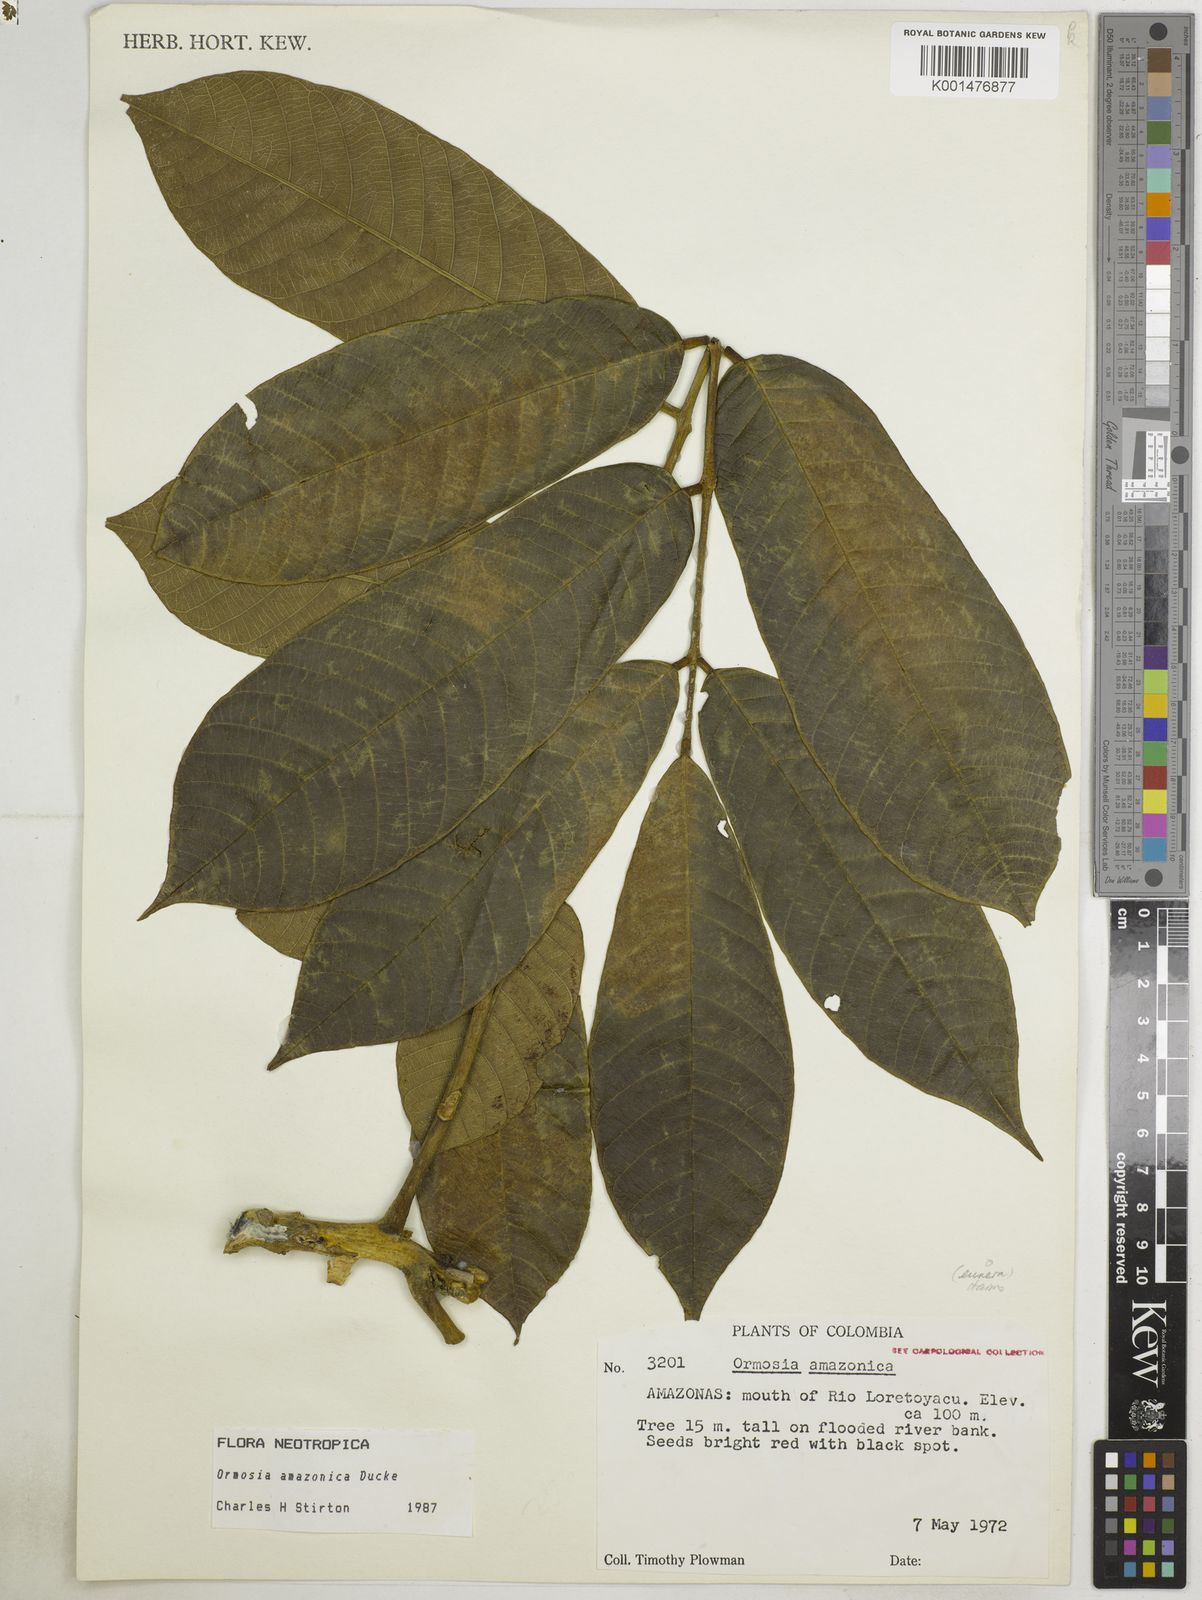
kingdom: Plantae
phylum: Tracheophyta
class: Magnoliopsida
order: Fabales
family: Fabaceae
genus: Ormosia
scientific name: Ormosia amazonica
